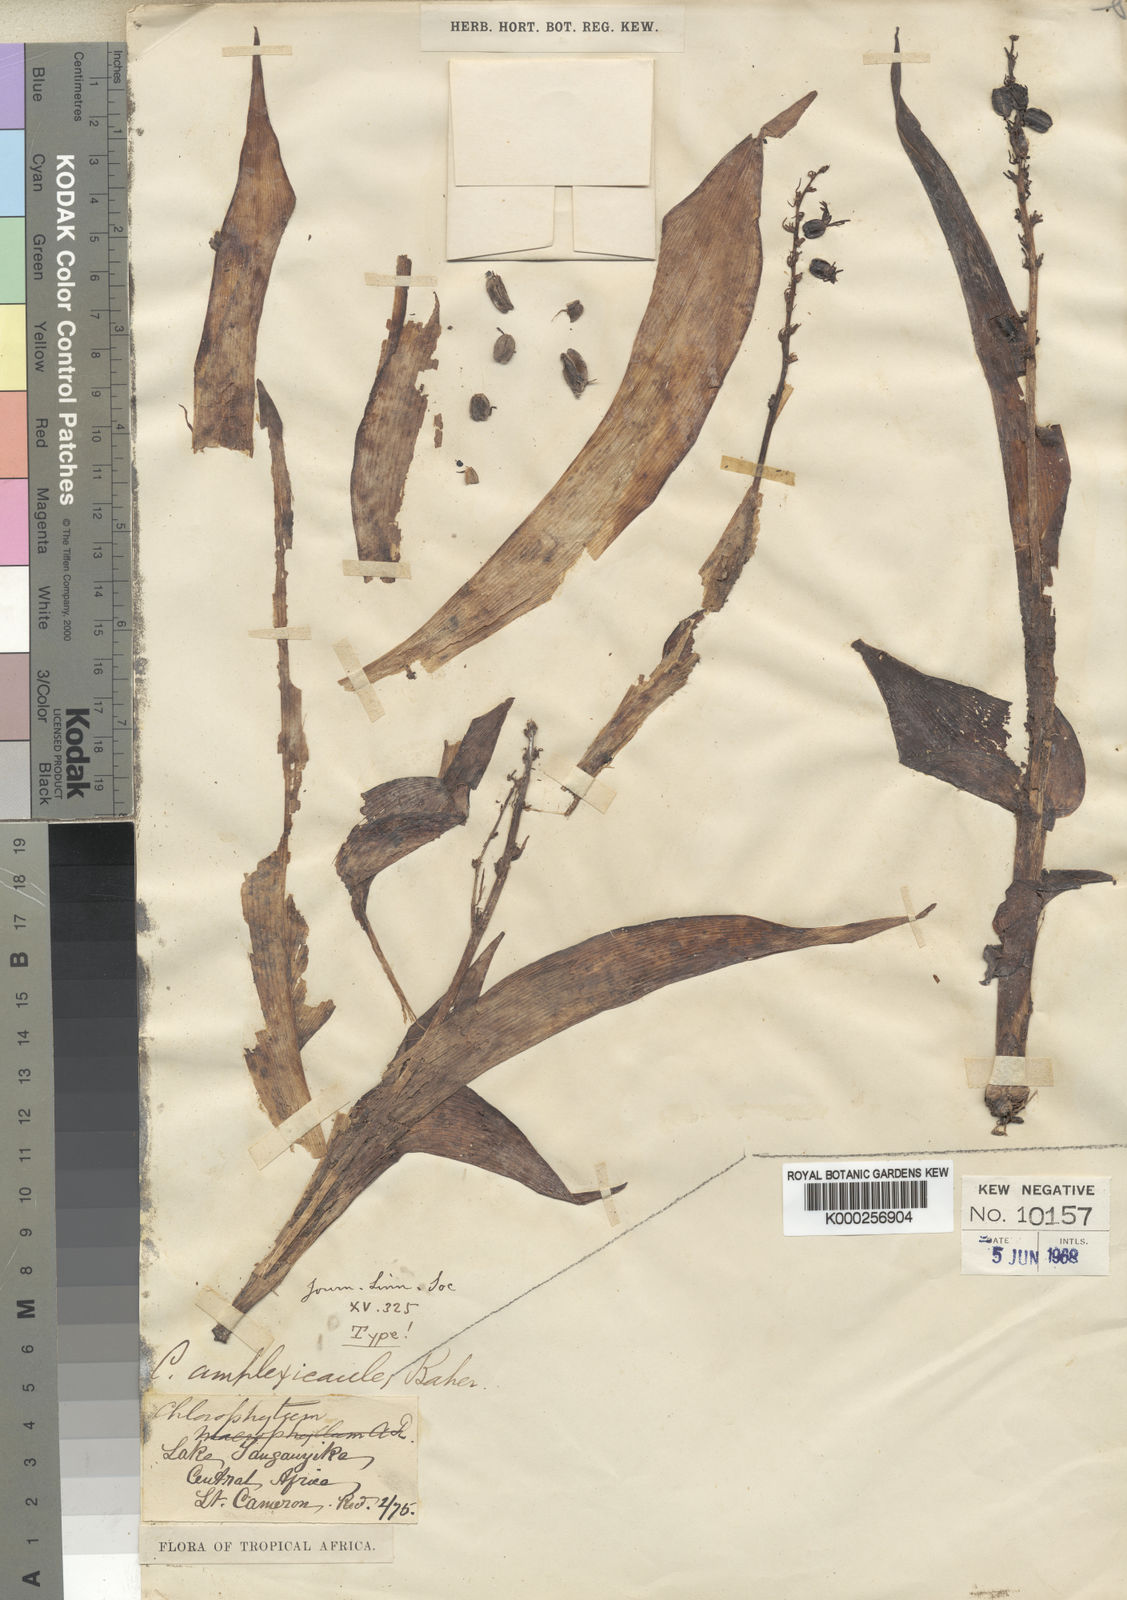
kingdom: Plantae
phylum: Tracheophyta
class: Liliopsida
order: Asparagales
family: Asparagaceae
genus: Chlorophytum
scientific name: Chlorophytum blepharophyllum
